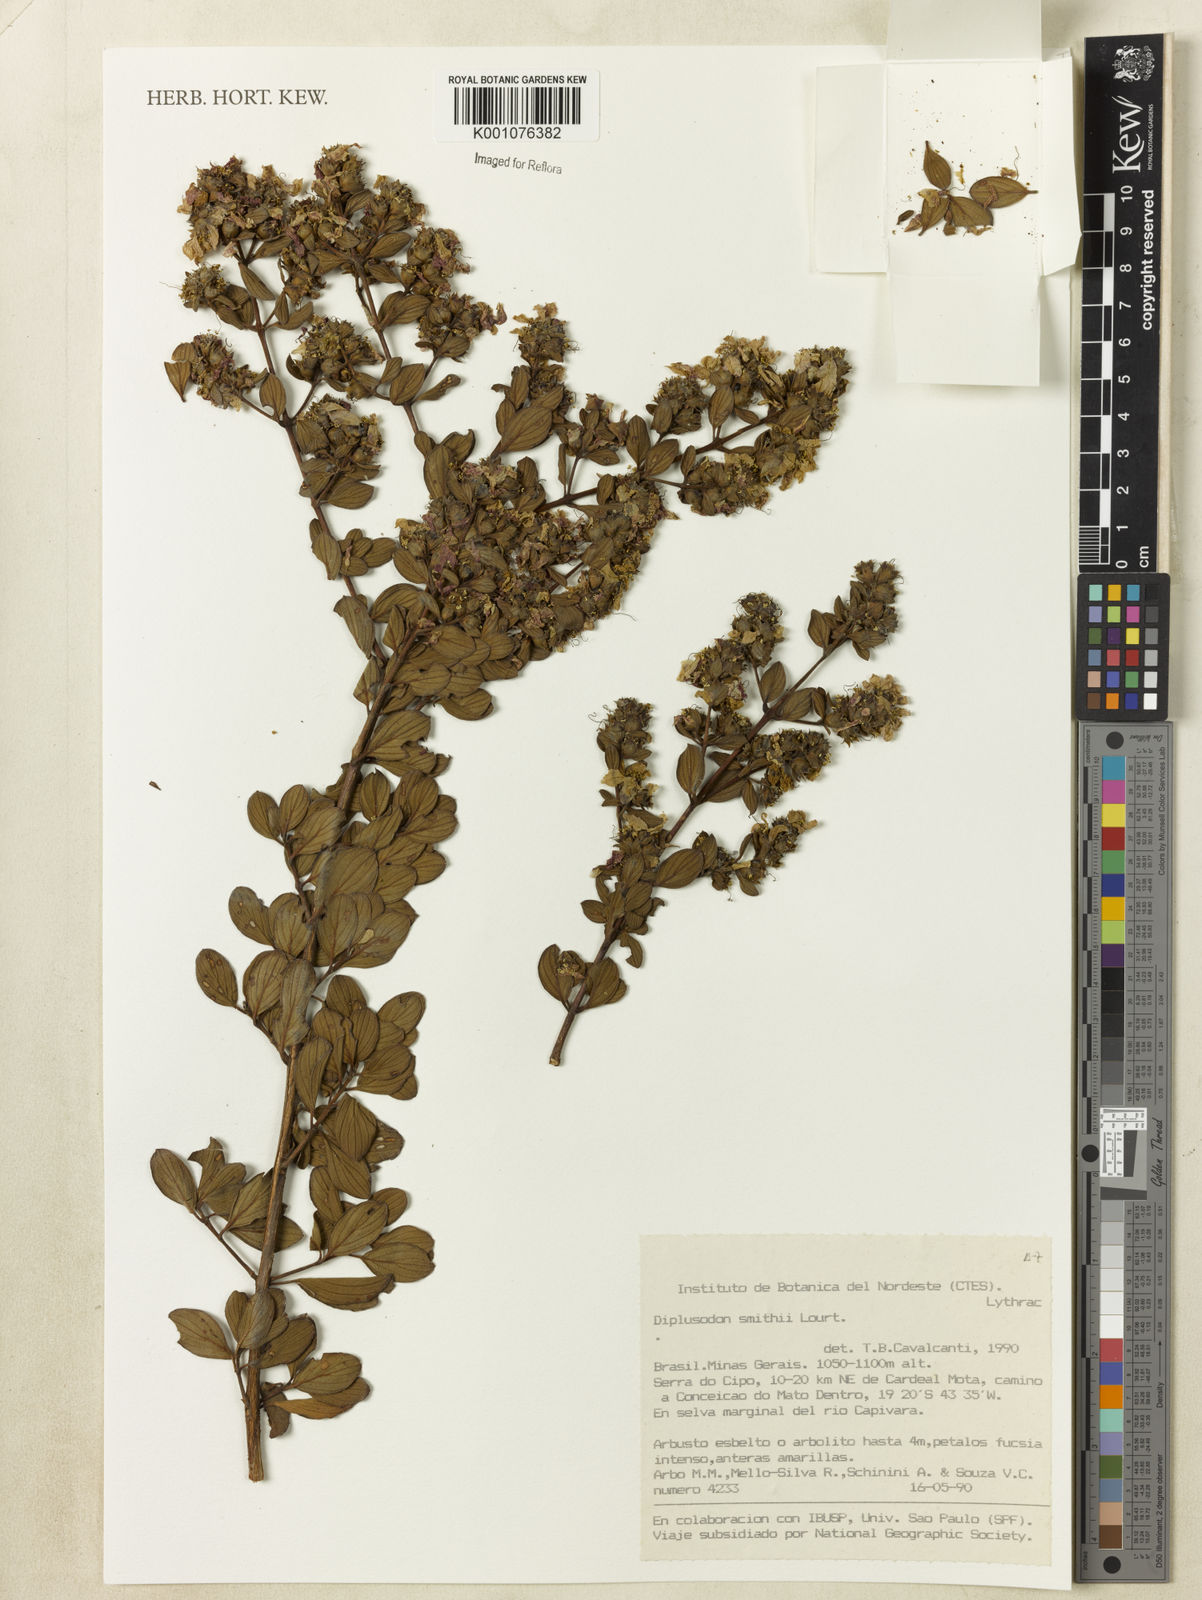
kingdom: Plantae
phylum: Tracheophyta
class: Magnoliopsida
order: Myrtales
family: Lythraceae
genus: Diplusodon
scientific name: Diplusodon hirsutus
